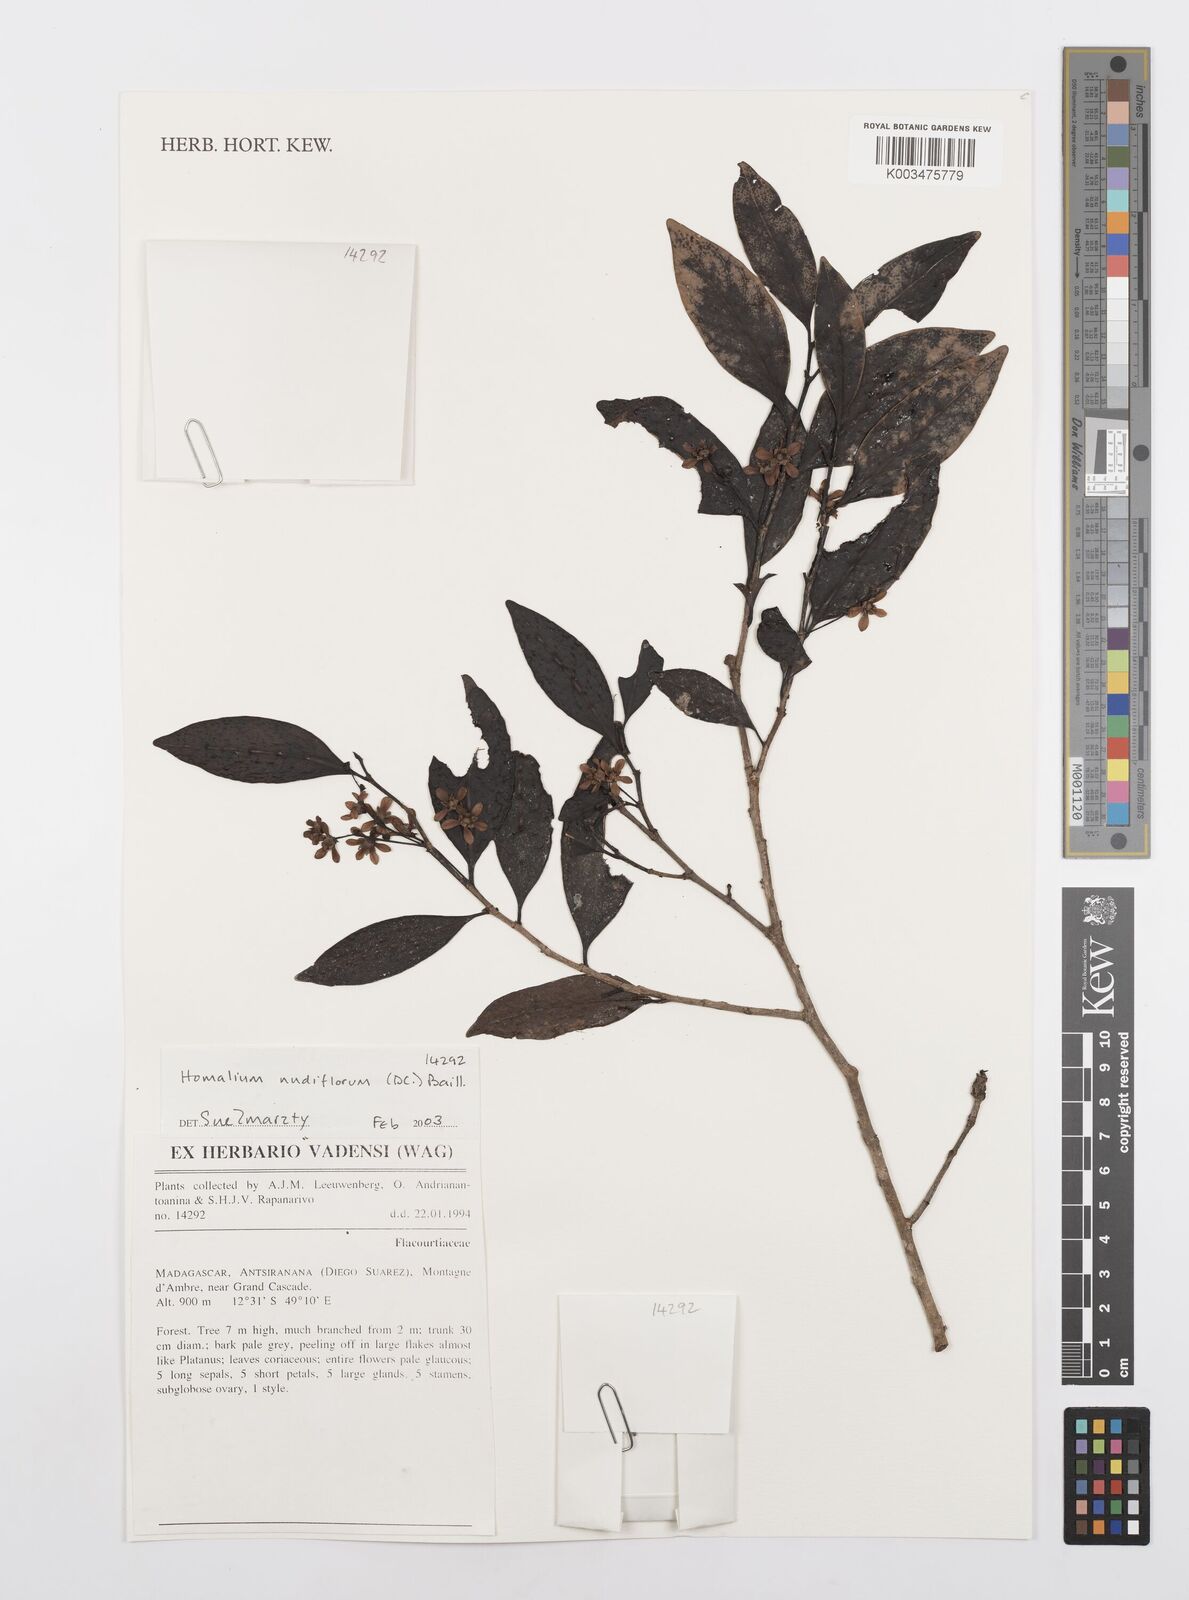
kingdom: Plantae
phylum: Tracheophyta
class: Magnoliopsida
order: Malpighiales
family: Salicaceae
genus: Homalium
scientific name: Homalium nudiflorum
